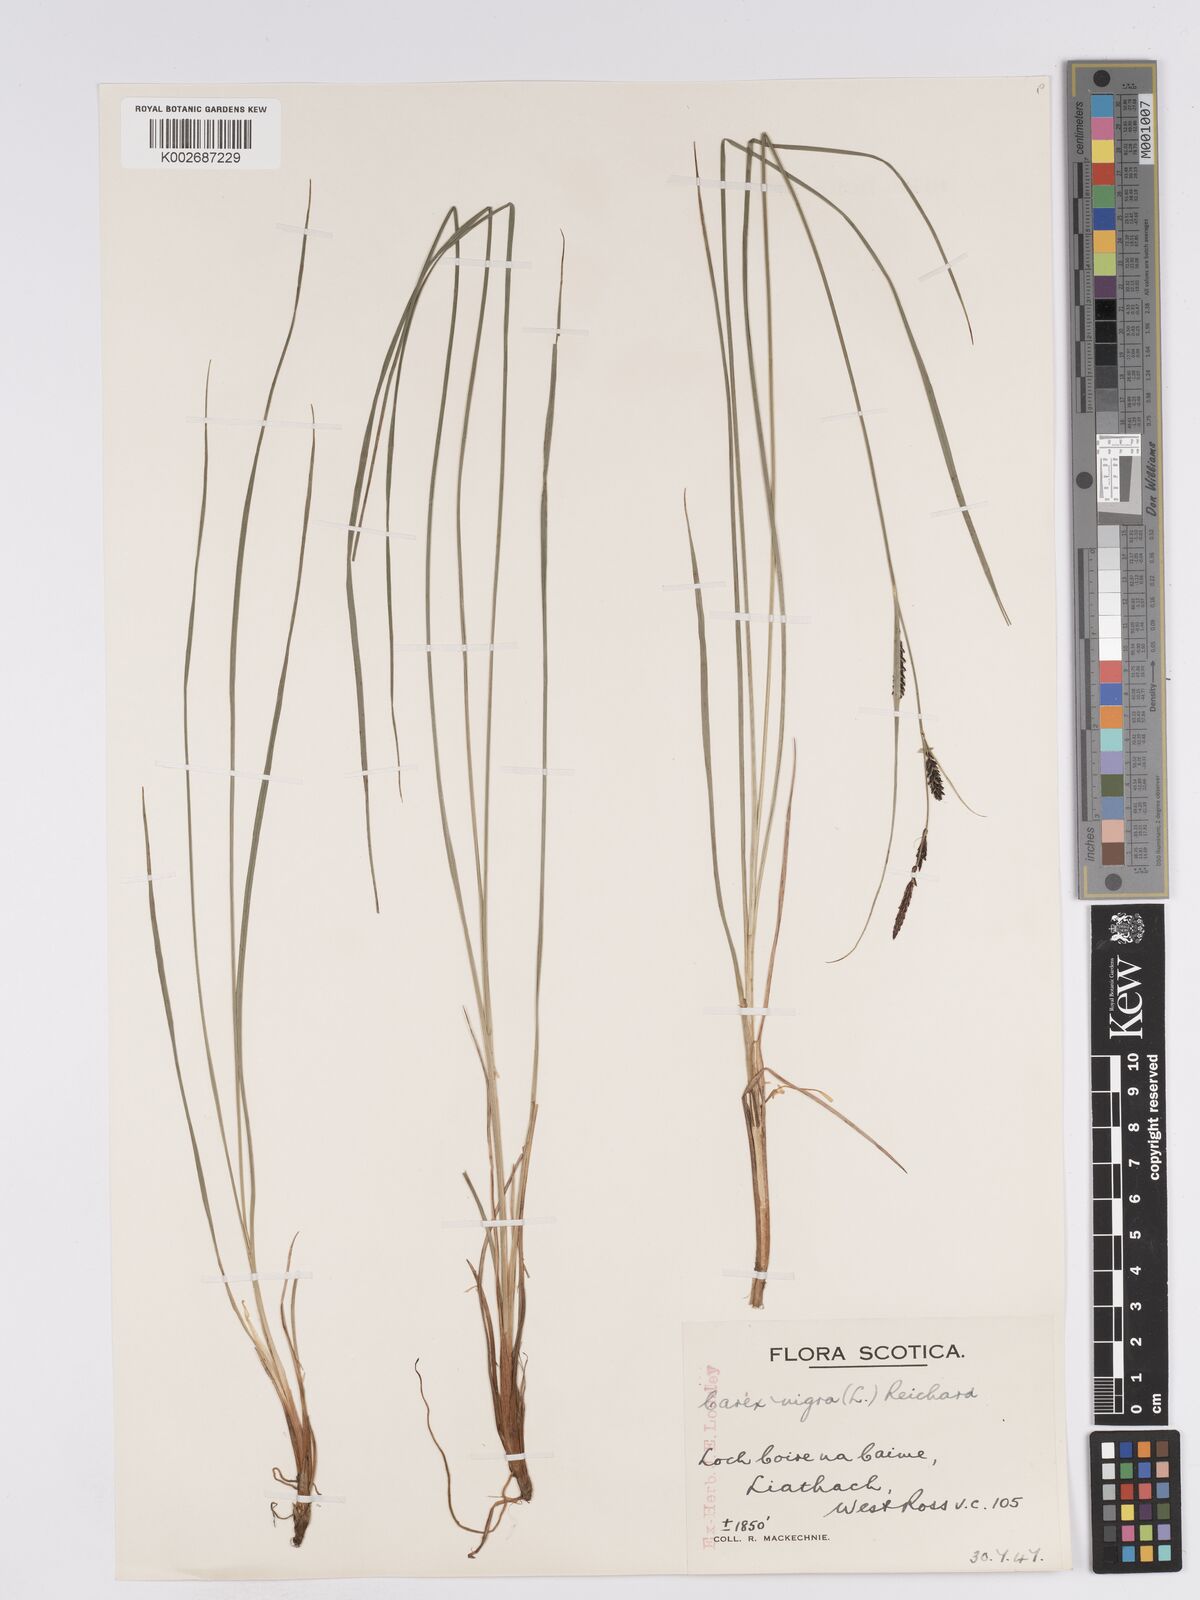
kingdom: Plantae
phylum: Tracheophyta
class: Liliopsida
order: Poales
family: Cyperaceae
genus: Carex
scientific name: Carex nigra
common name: Common sedge
